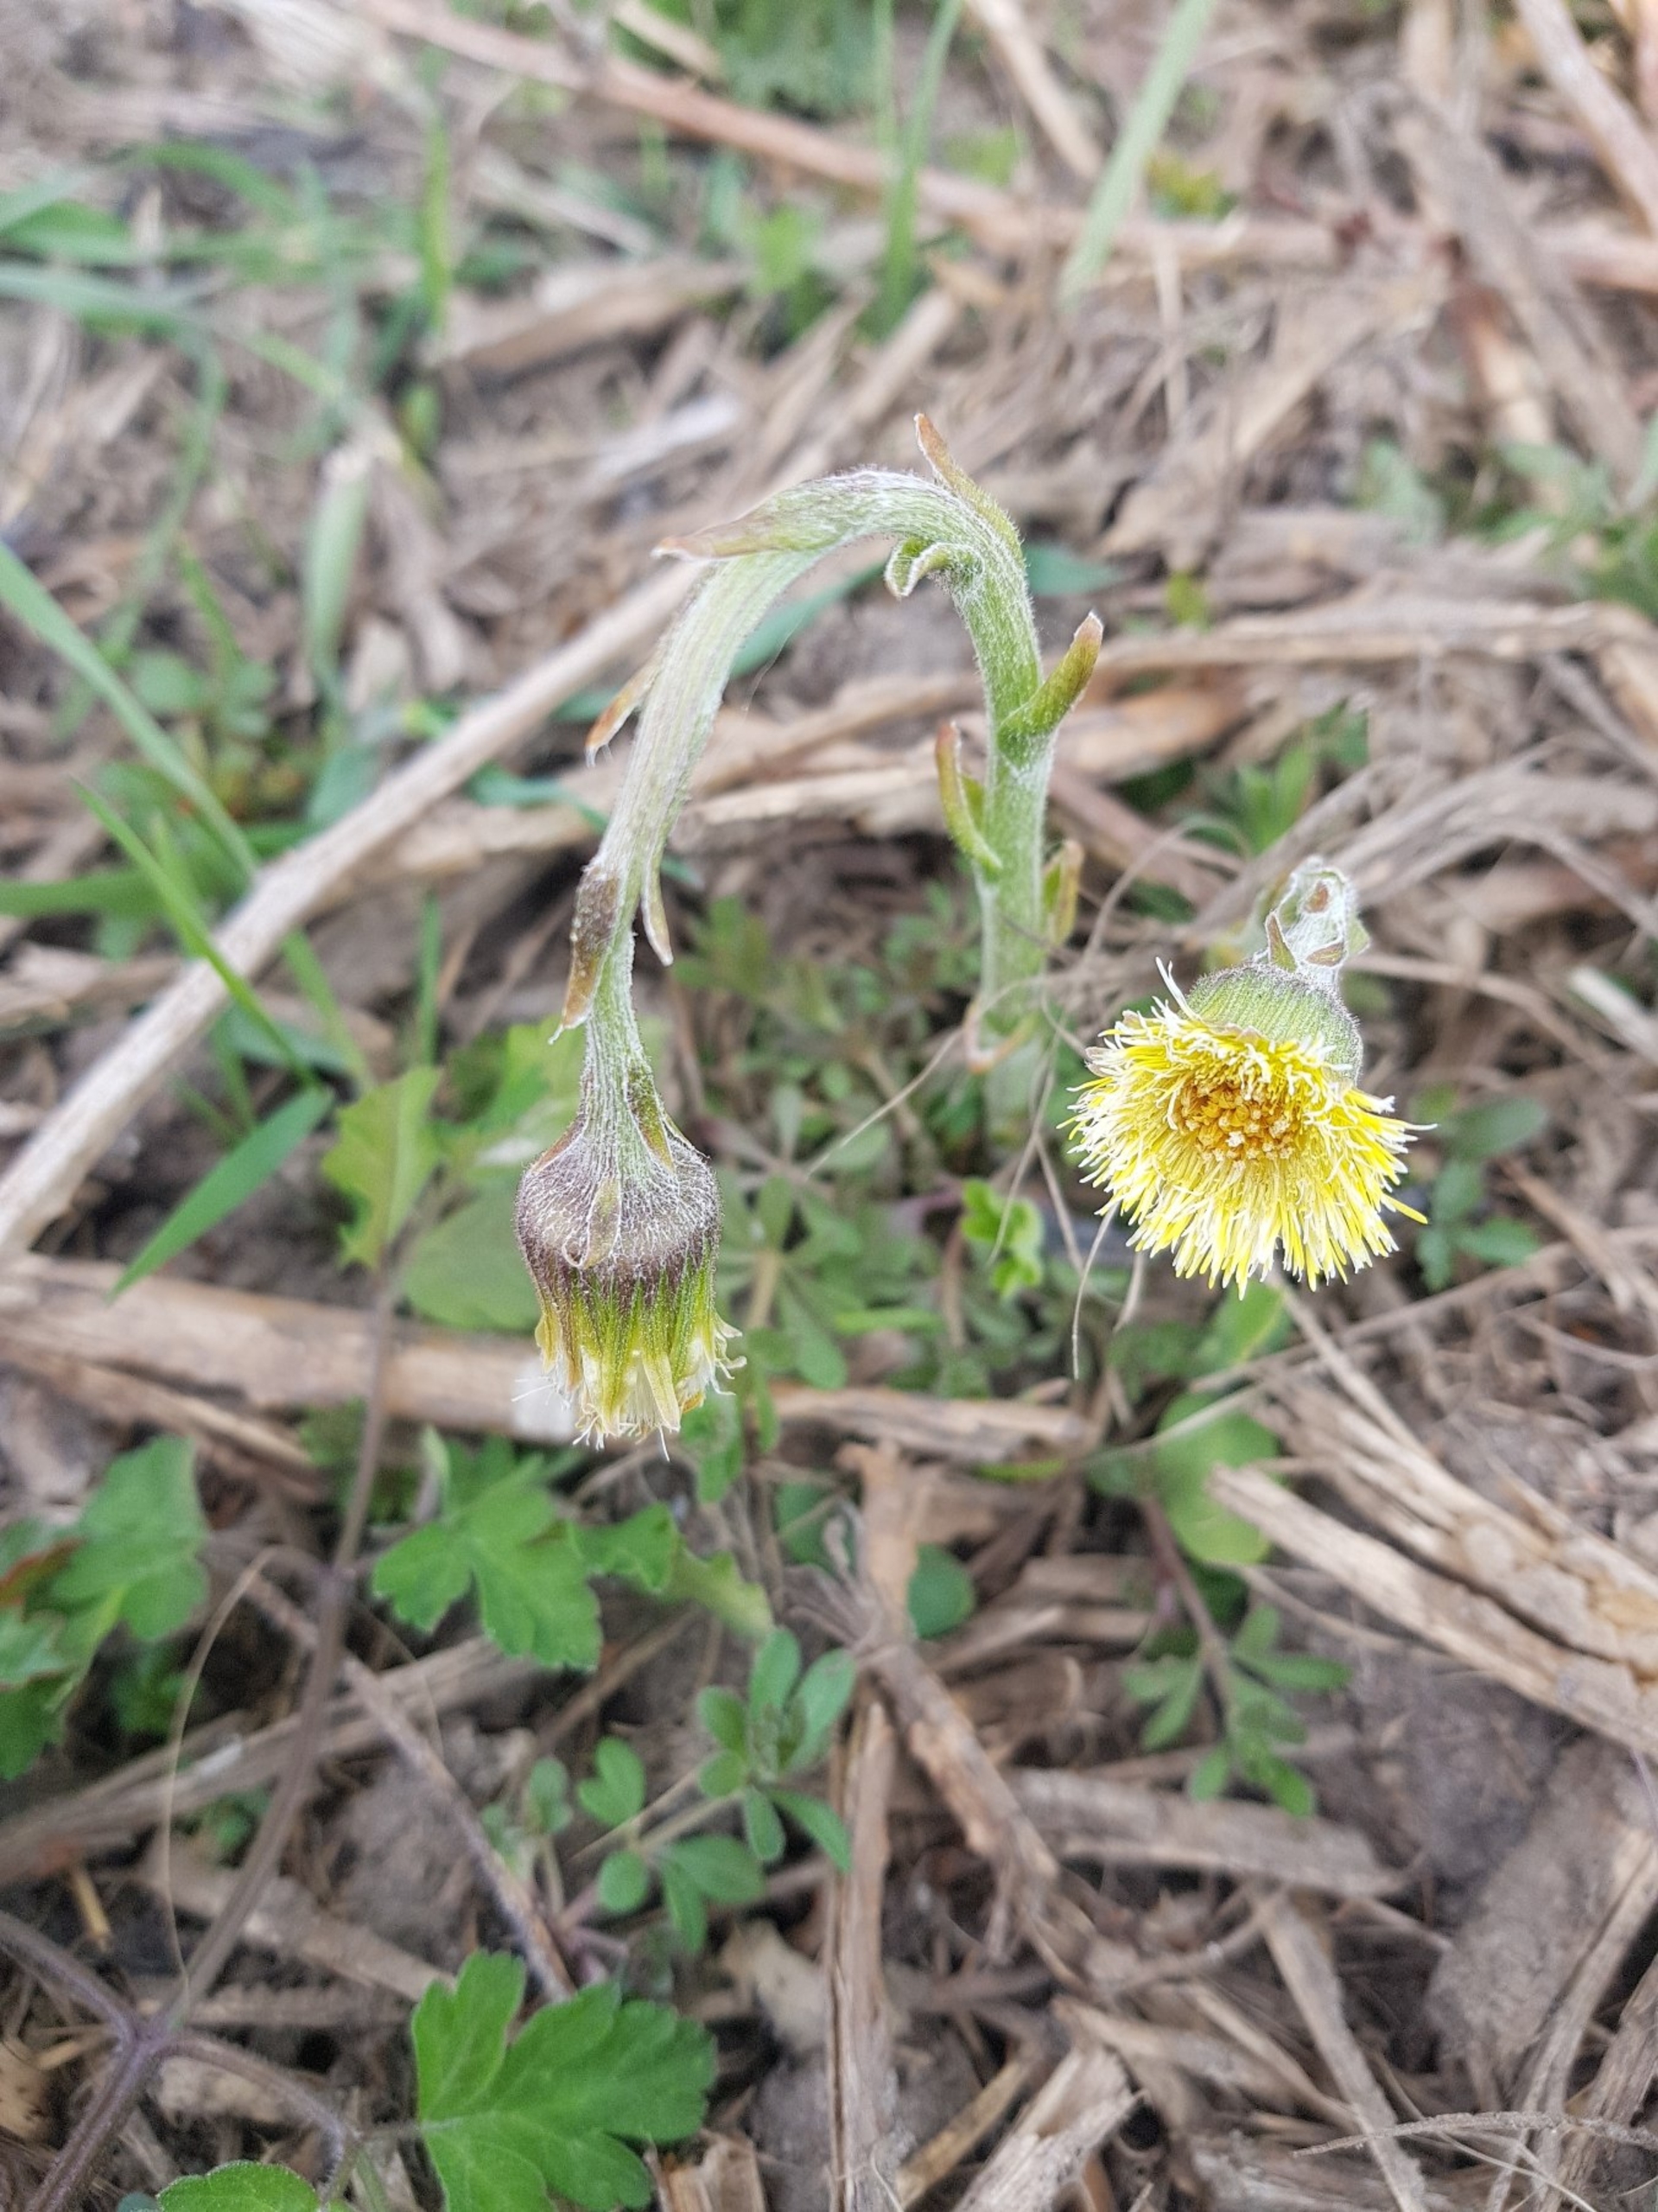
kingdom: Plantae
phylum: Tracheophyta
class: Magnoliopsida
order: Asterales
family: Asteraceae
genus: Tussilago
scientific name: Tussilago farfara
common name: Følfod
